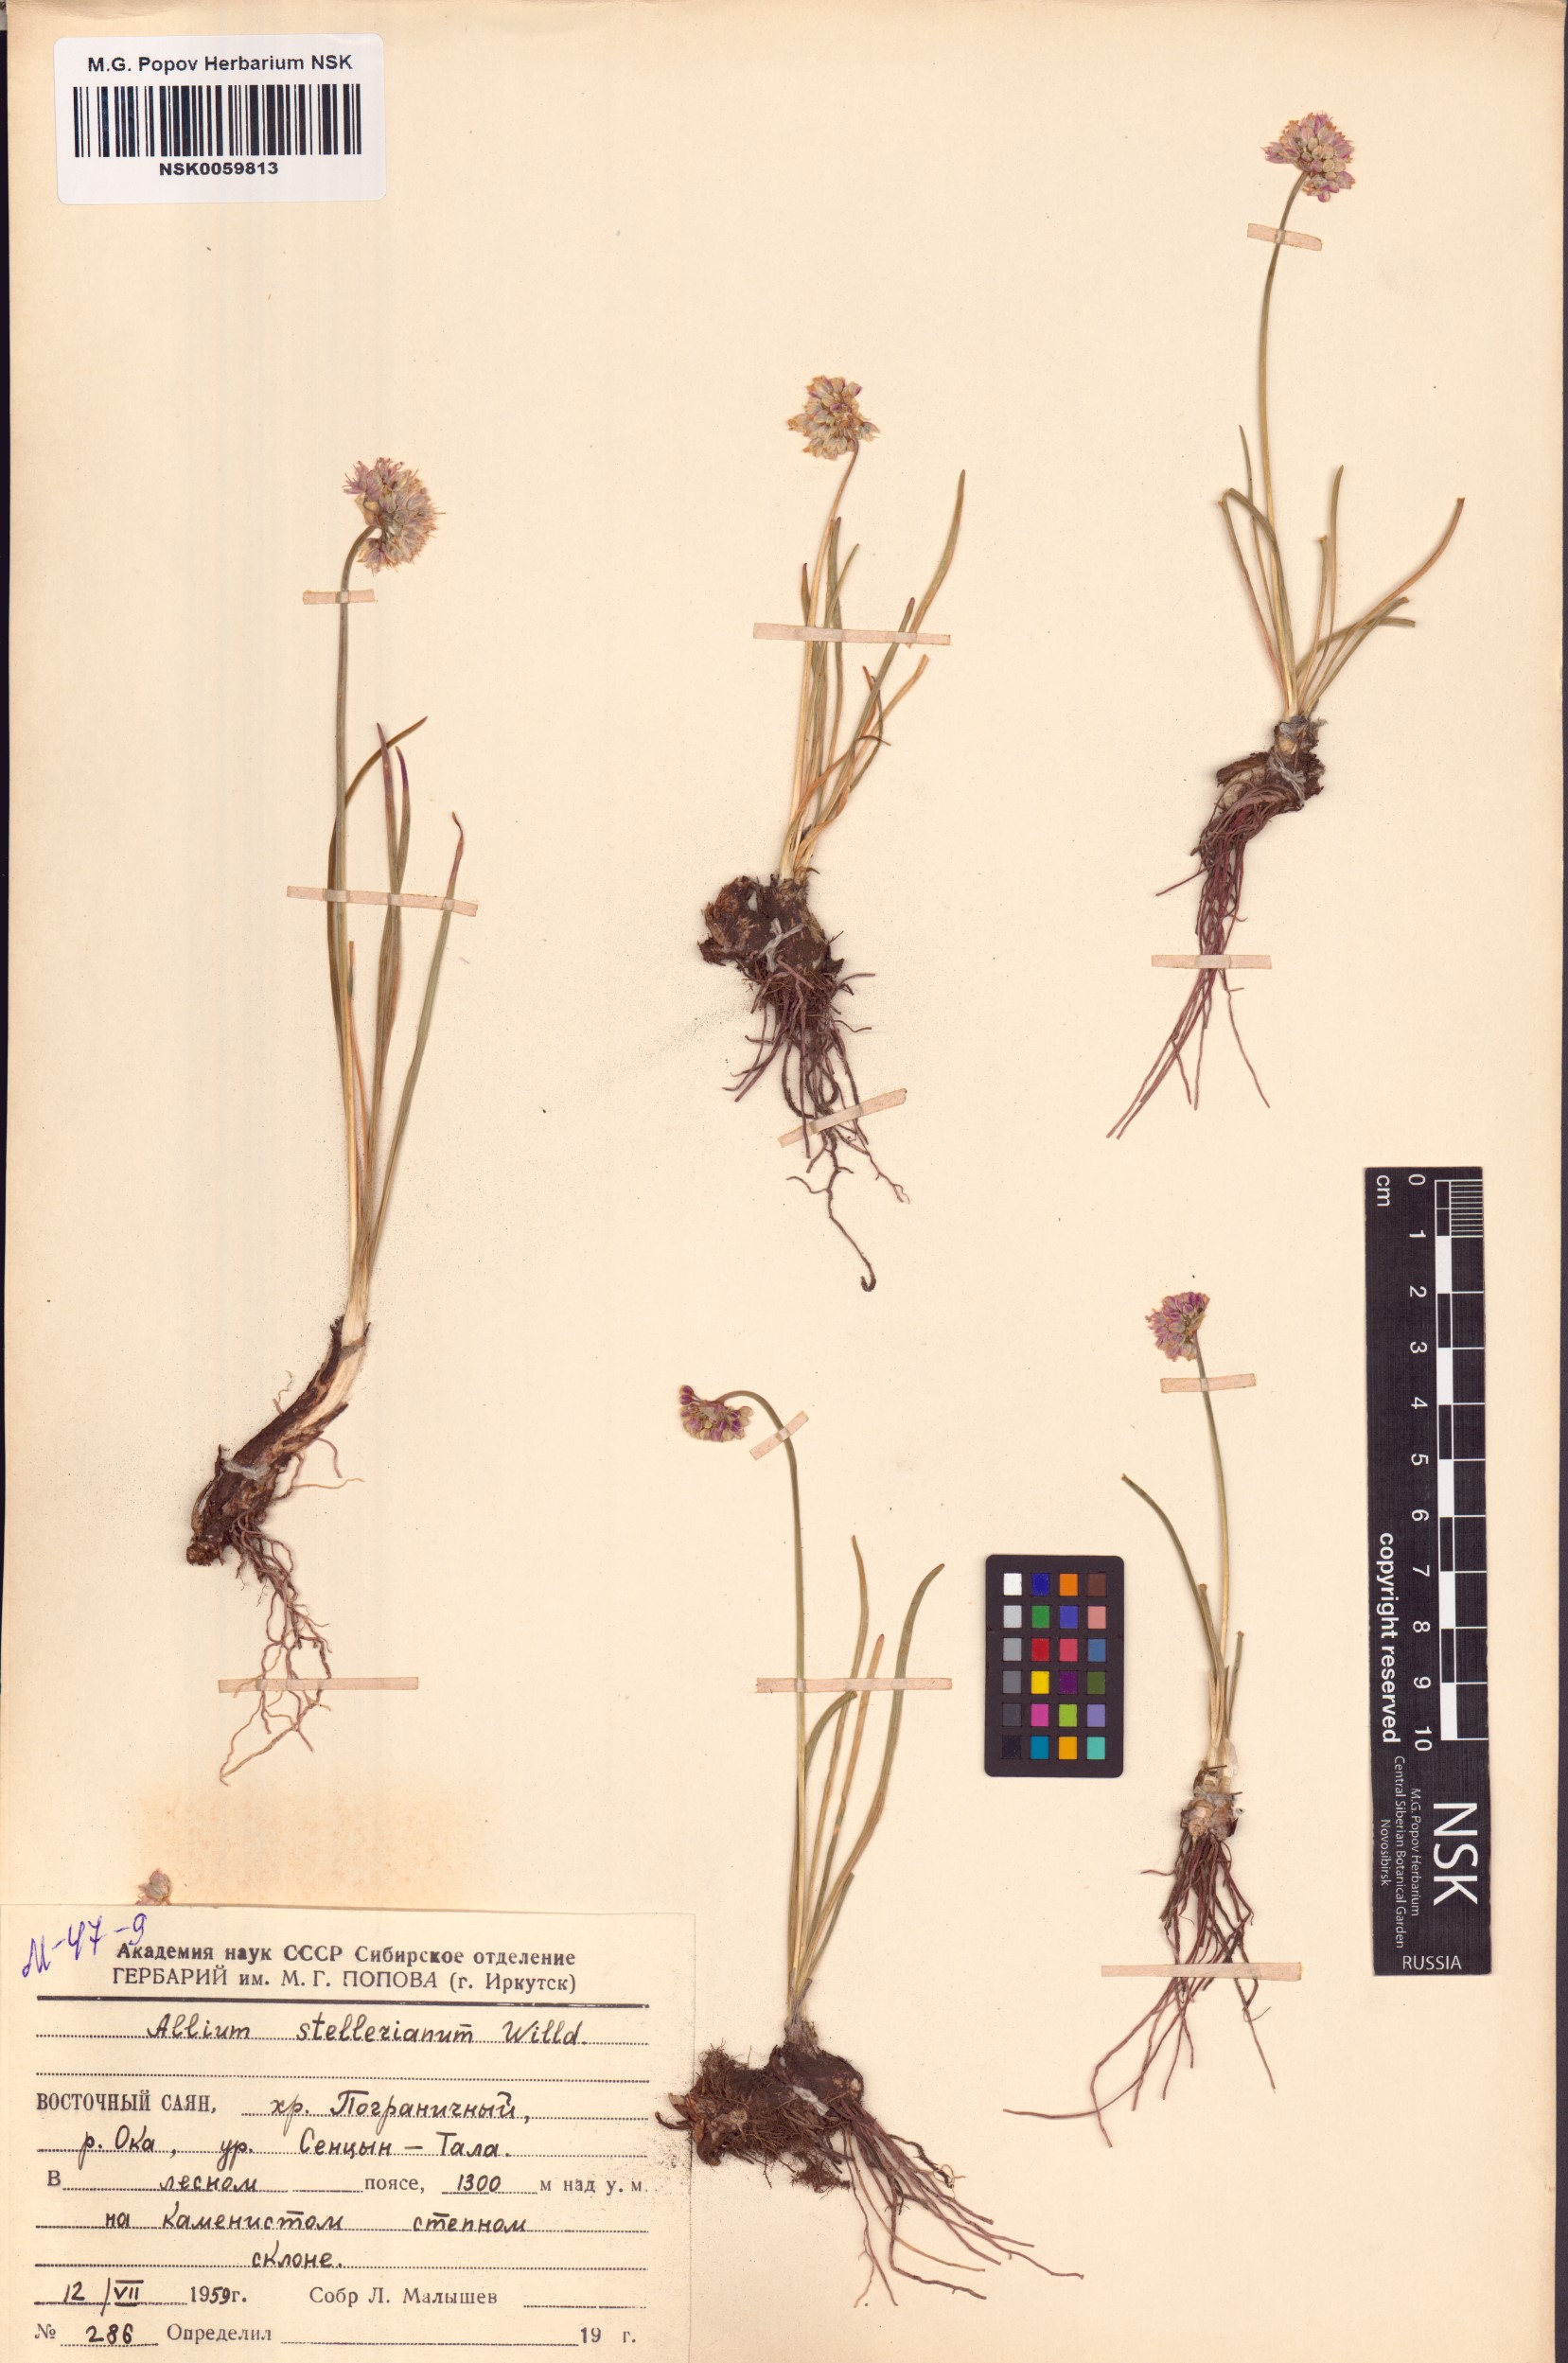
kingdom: Plantae
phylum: Tracheophyta
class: Liliopsida
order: Asparagales
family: Amaryllidaceae
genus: Allium
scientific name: Allium stellerianum
